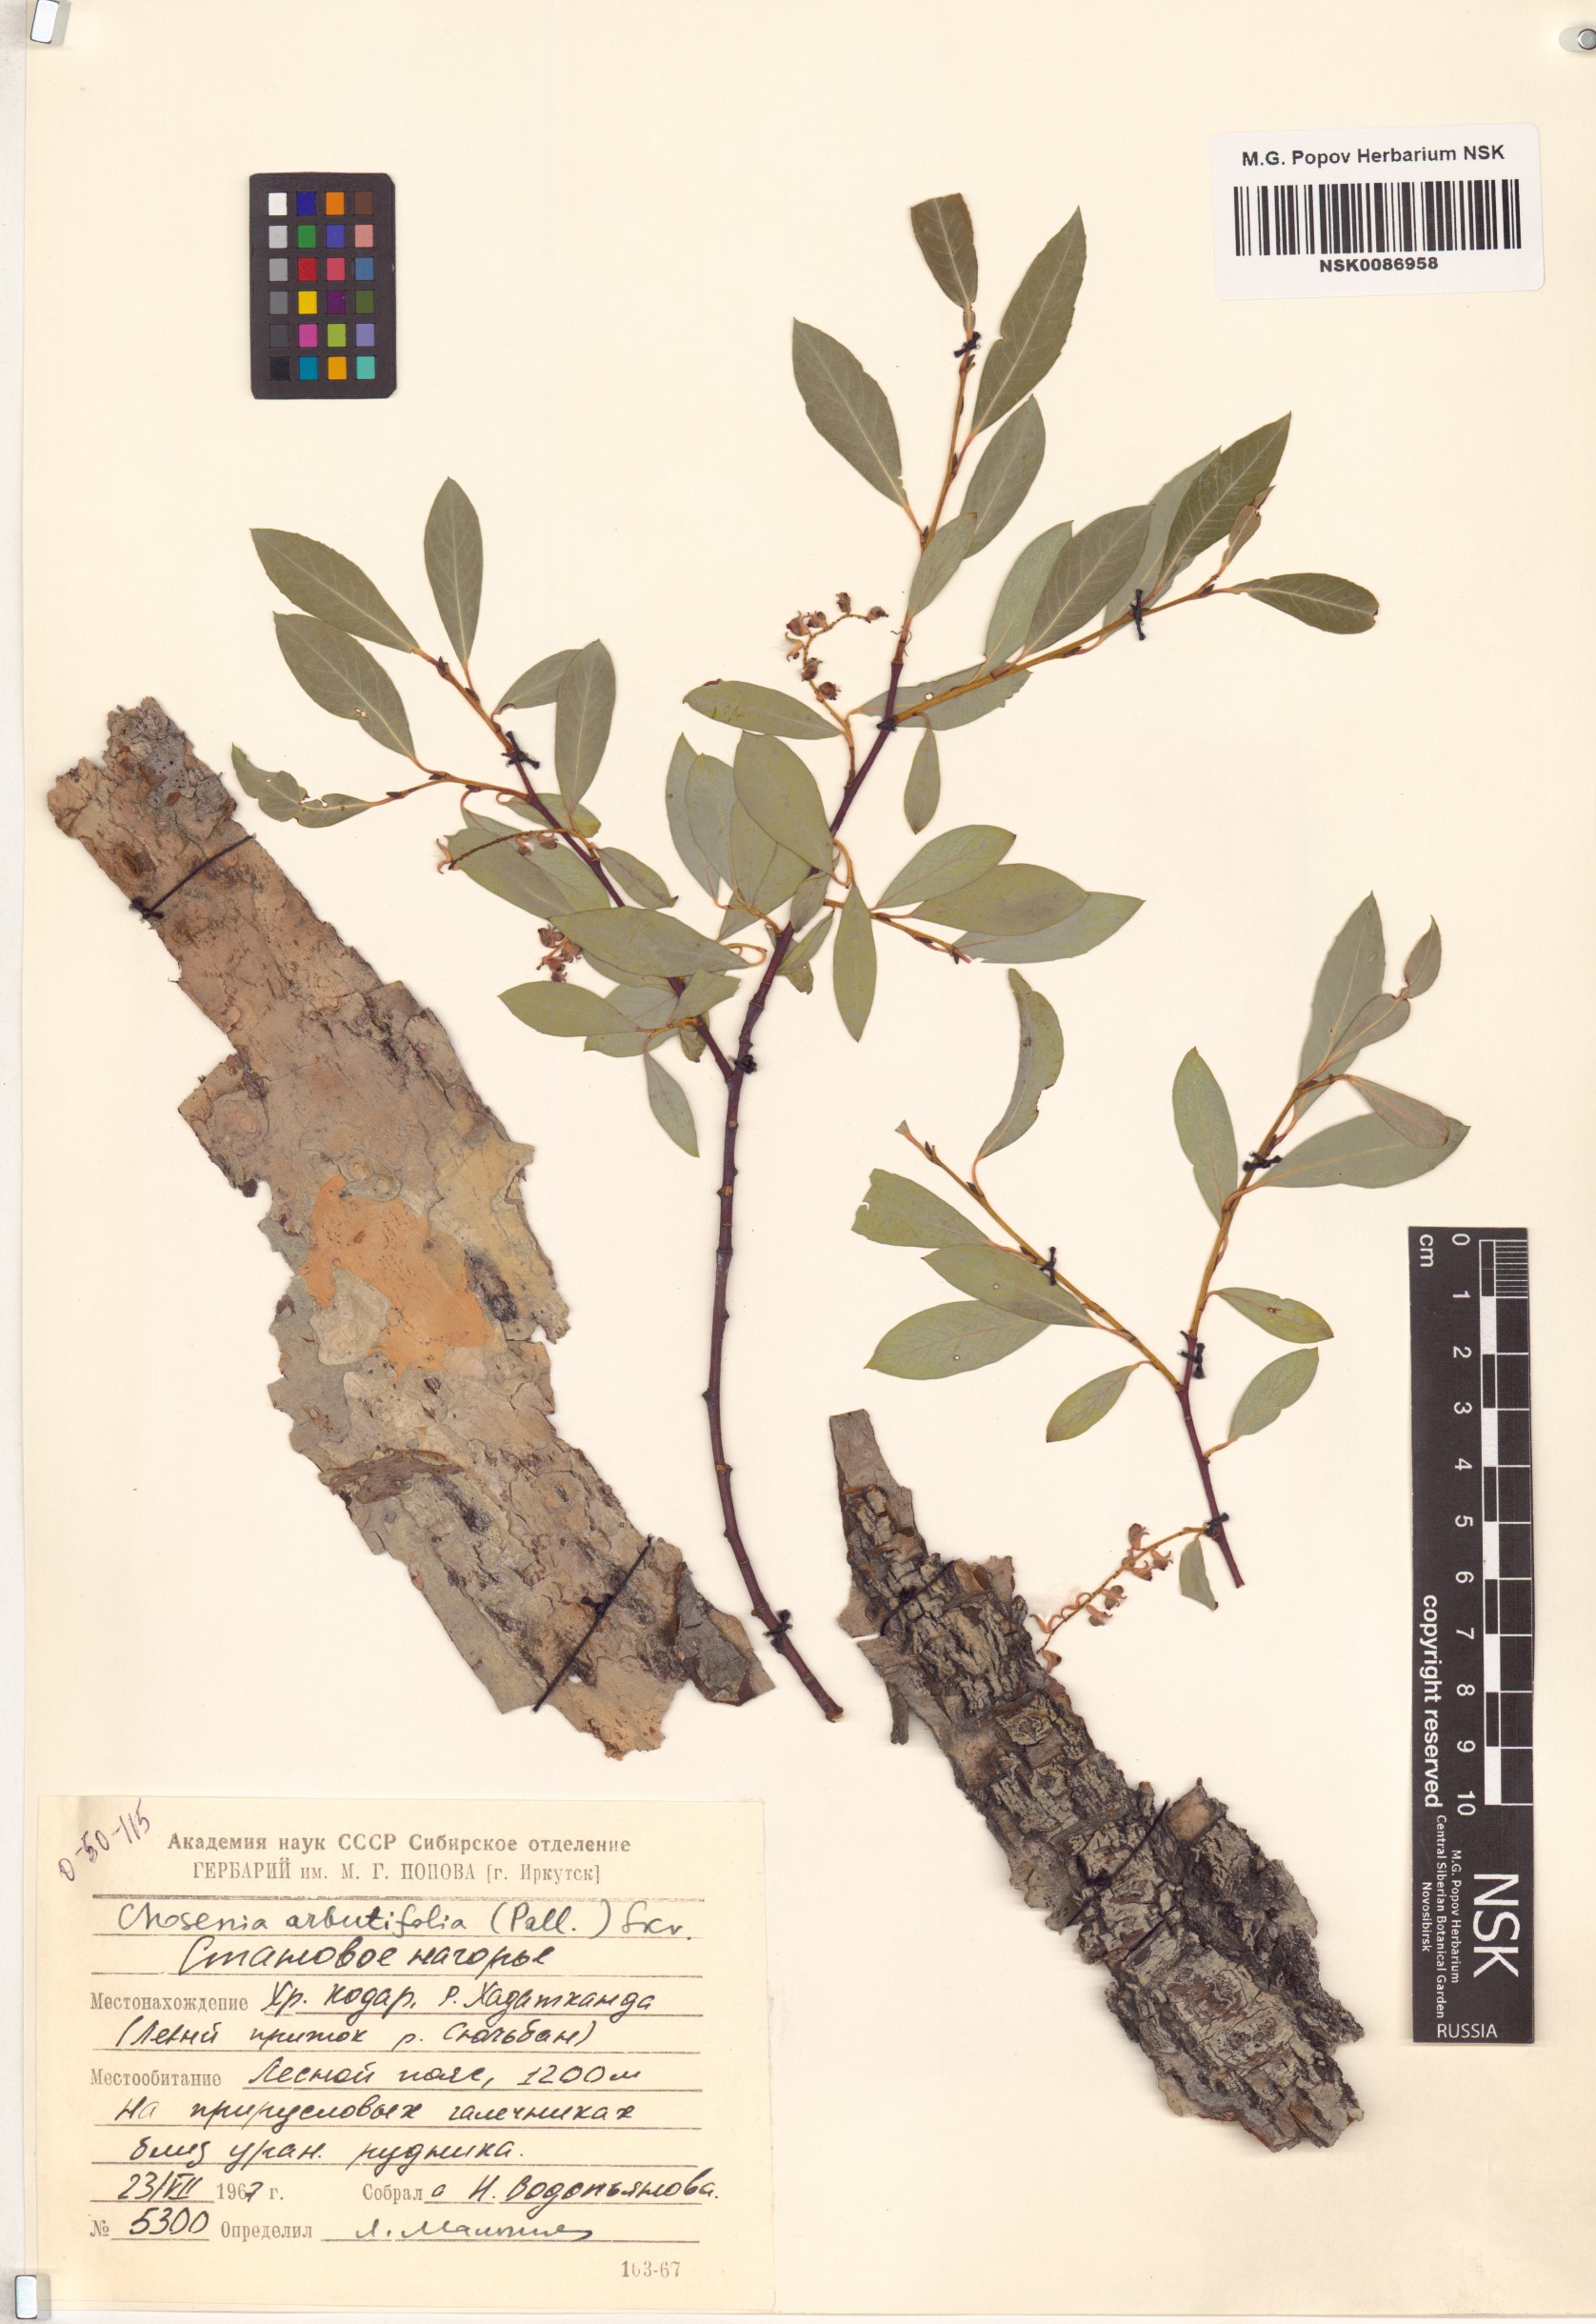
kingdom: Plantae
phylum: Tracheophyta
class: Magnoliopsida
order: Malpighiales
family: Salicaceae
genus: Chosenia
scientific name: Chosenia arbutifolia
